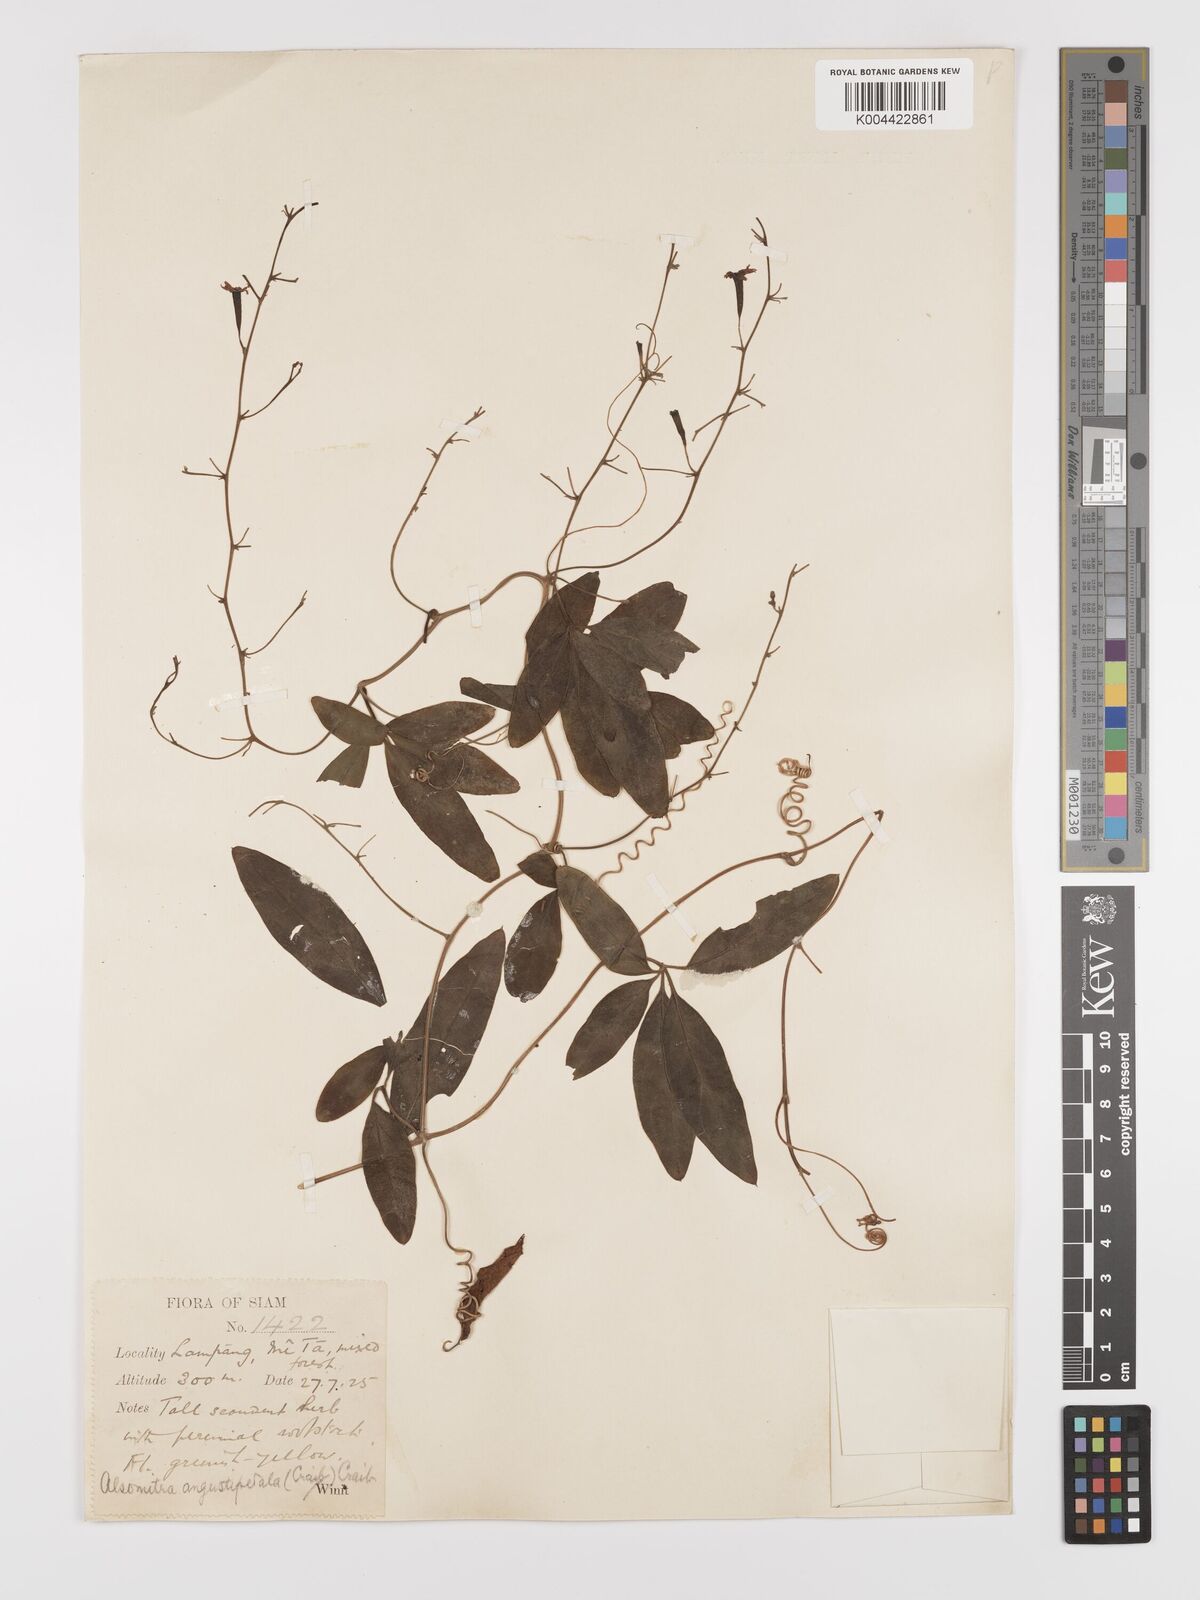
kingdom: Plantae
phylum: Tracheophyta
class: Magnoliopsida
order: Cucurbitales
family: Cucurbitaceae
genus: Neoalsomitra
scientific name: Neoalsomitra angustipetala
